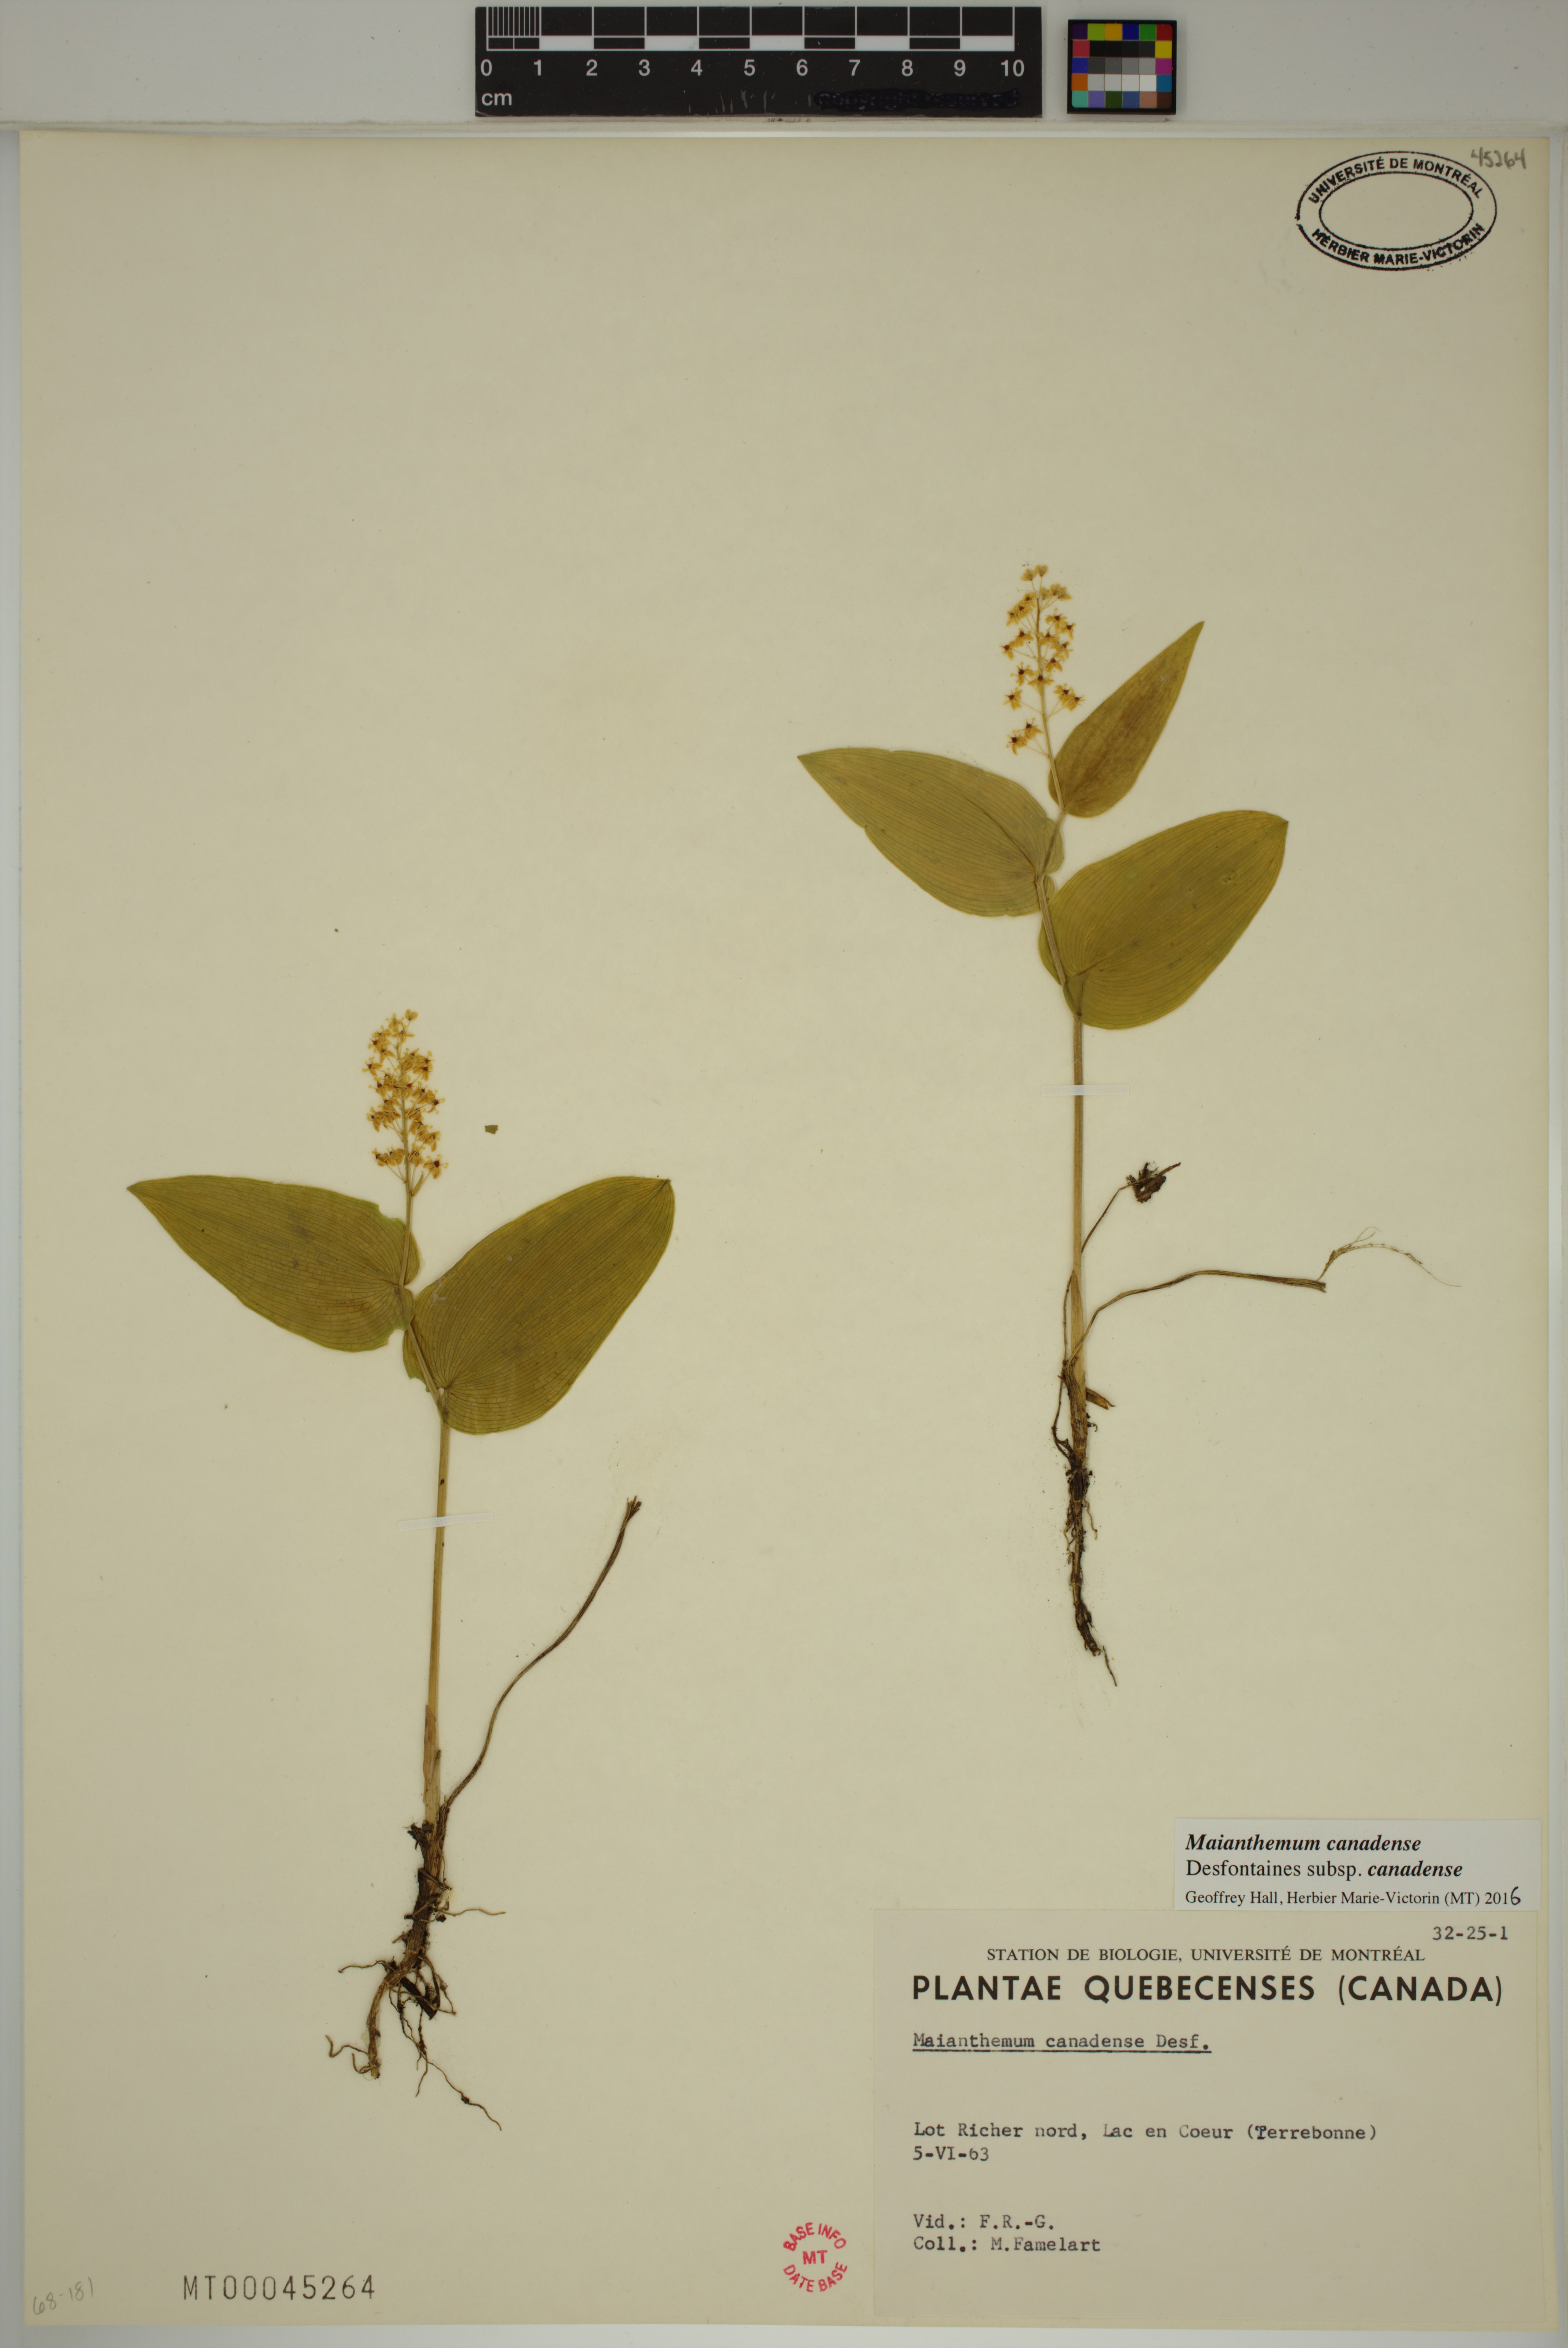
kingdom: Plantae
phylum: Tracheophyta
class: Liliopsida
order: Asparagales
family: Asparagaceae
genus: Maianthemum
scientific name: Maianthemum canadense
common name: False lily-of-the-valley
